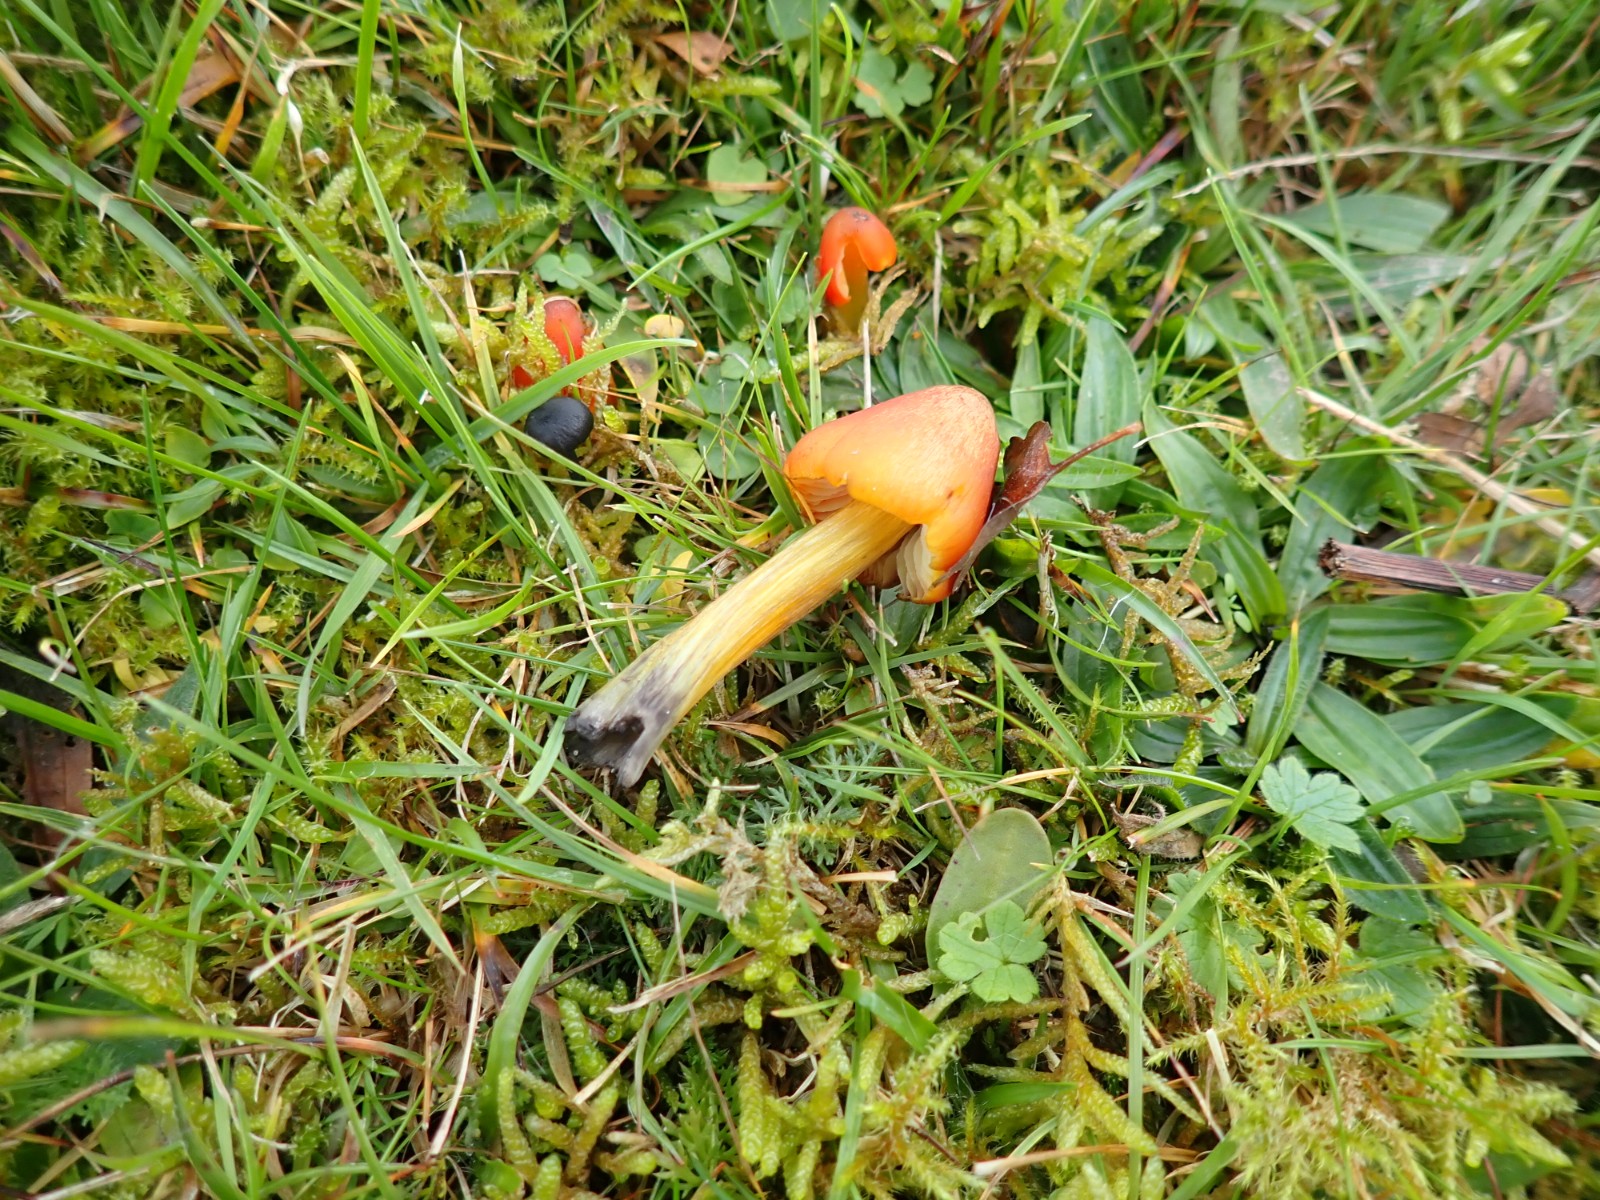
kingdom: Fungi
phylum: Basidiomycota
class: Agaricomycetes
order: Agaricales
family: Hygrophoraceae
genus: Hygrocybe
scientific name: Hygrocybe conica
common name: kegle-vokshat
